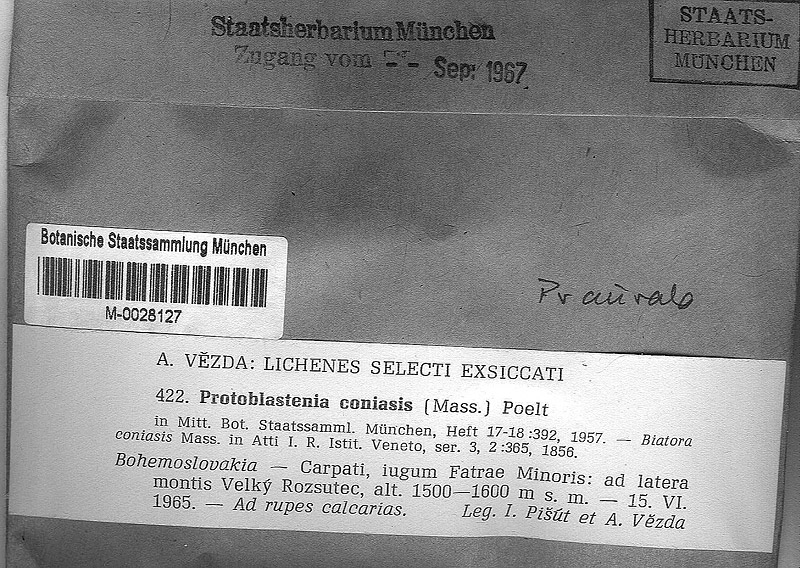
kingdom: Fungi
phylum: Ascomycota
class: Lecanoromycetes
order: Lecanorales
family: Psoraceae
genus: Protoblastenia
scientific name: Protoblastenia aurata
